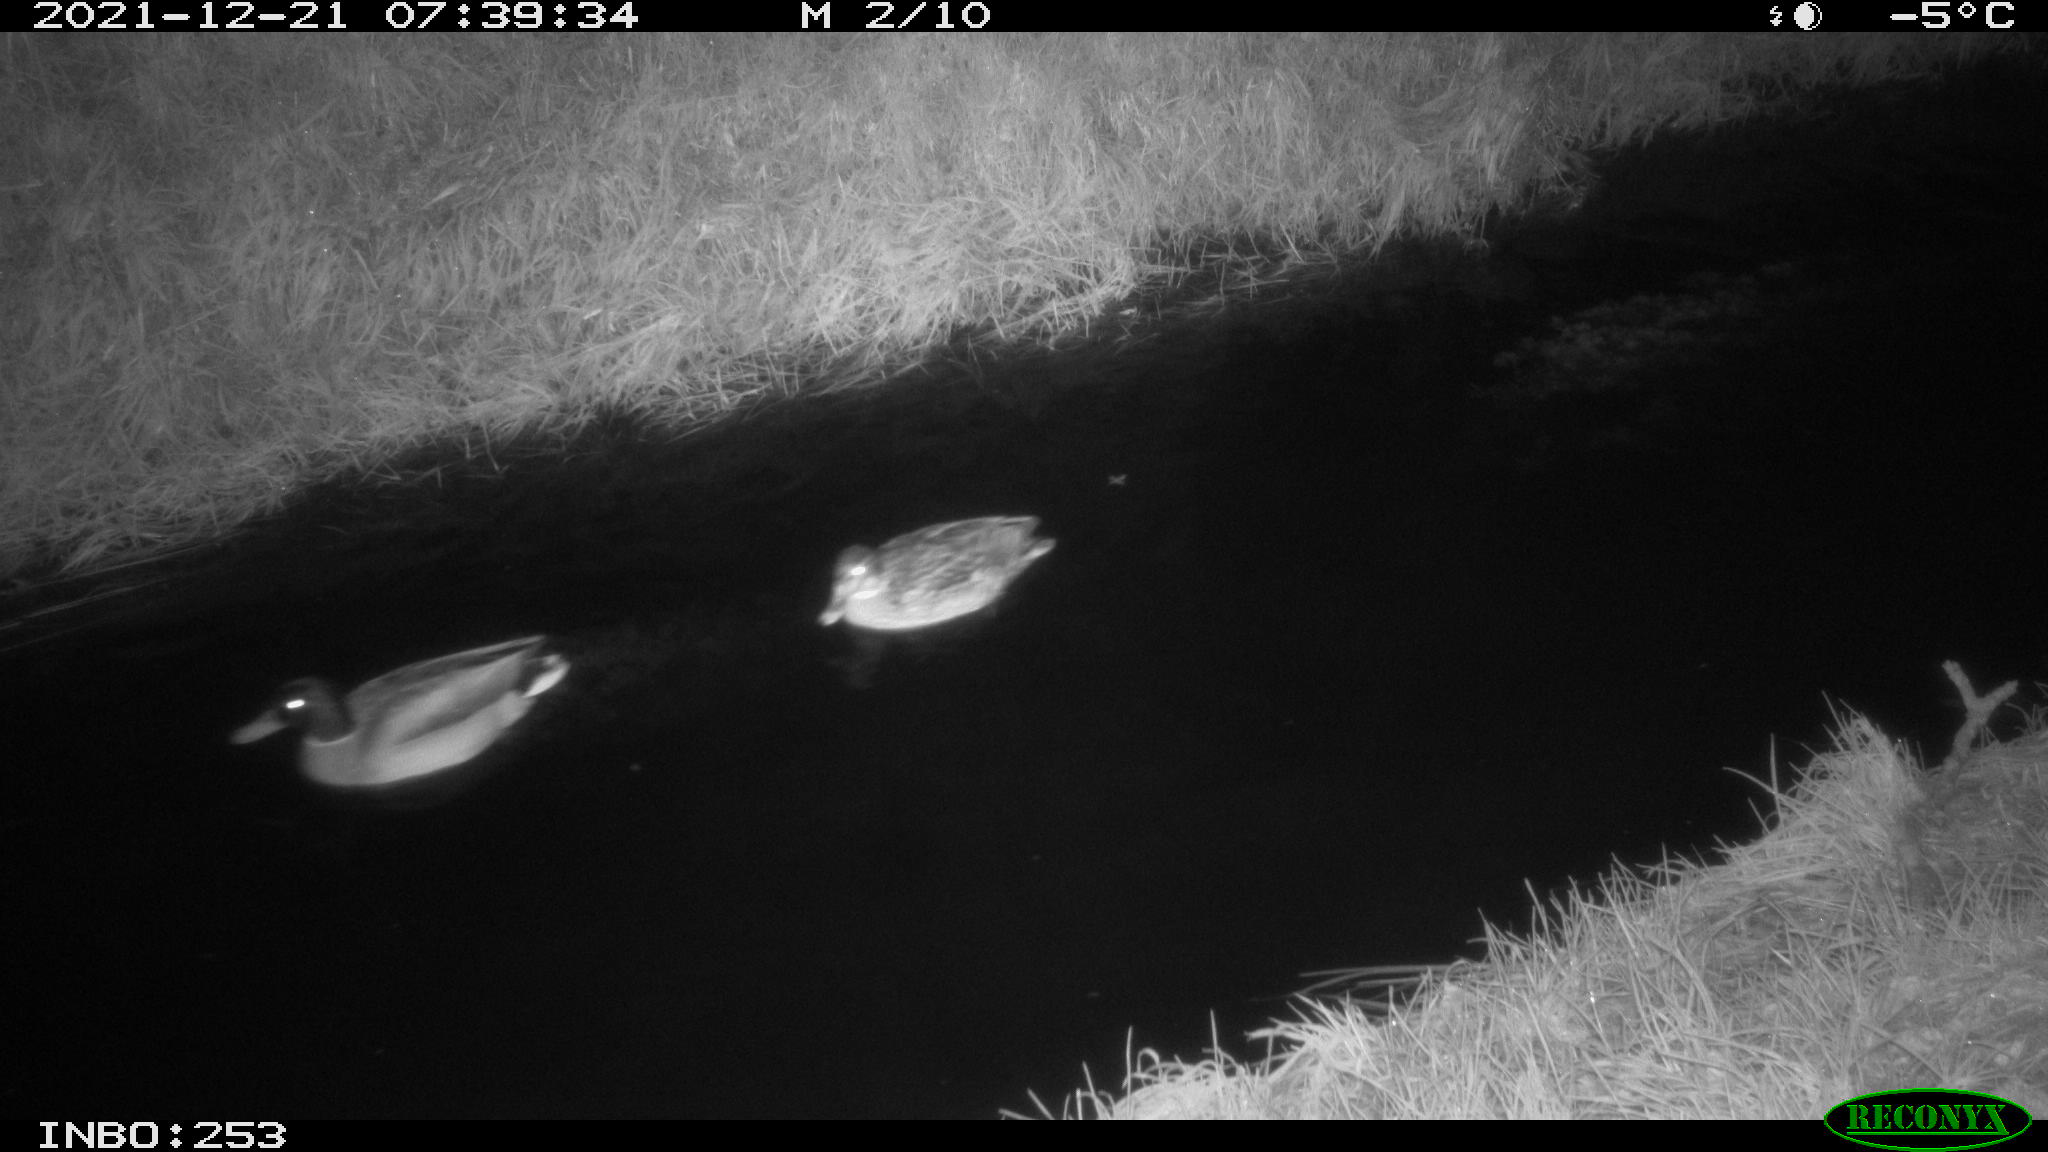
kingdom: Animalia
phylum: Chordata
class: Aves
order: Anseriformes
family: Anatidae
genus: Anas
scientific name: Anas
